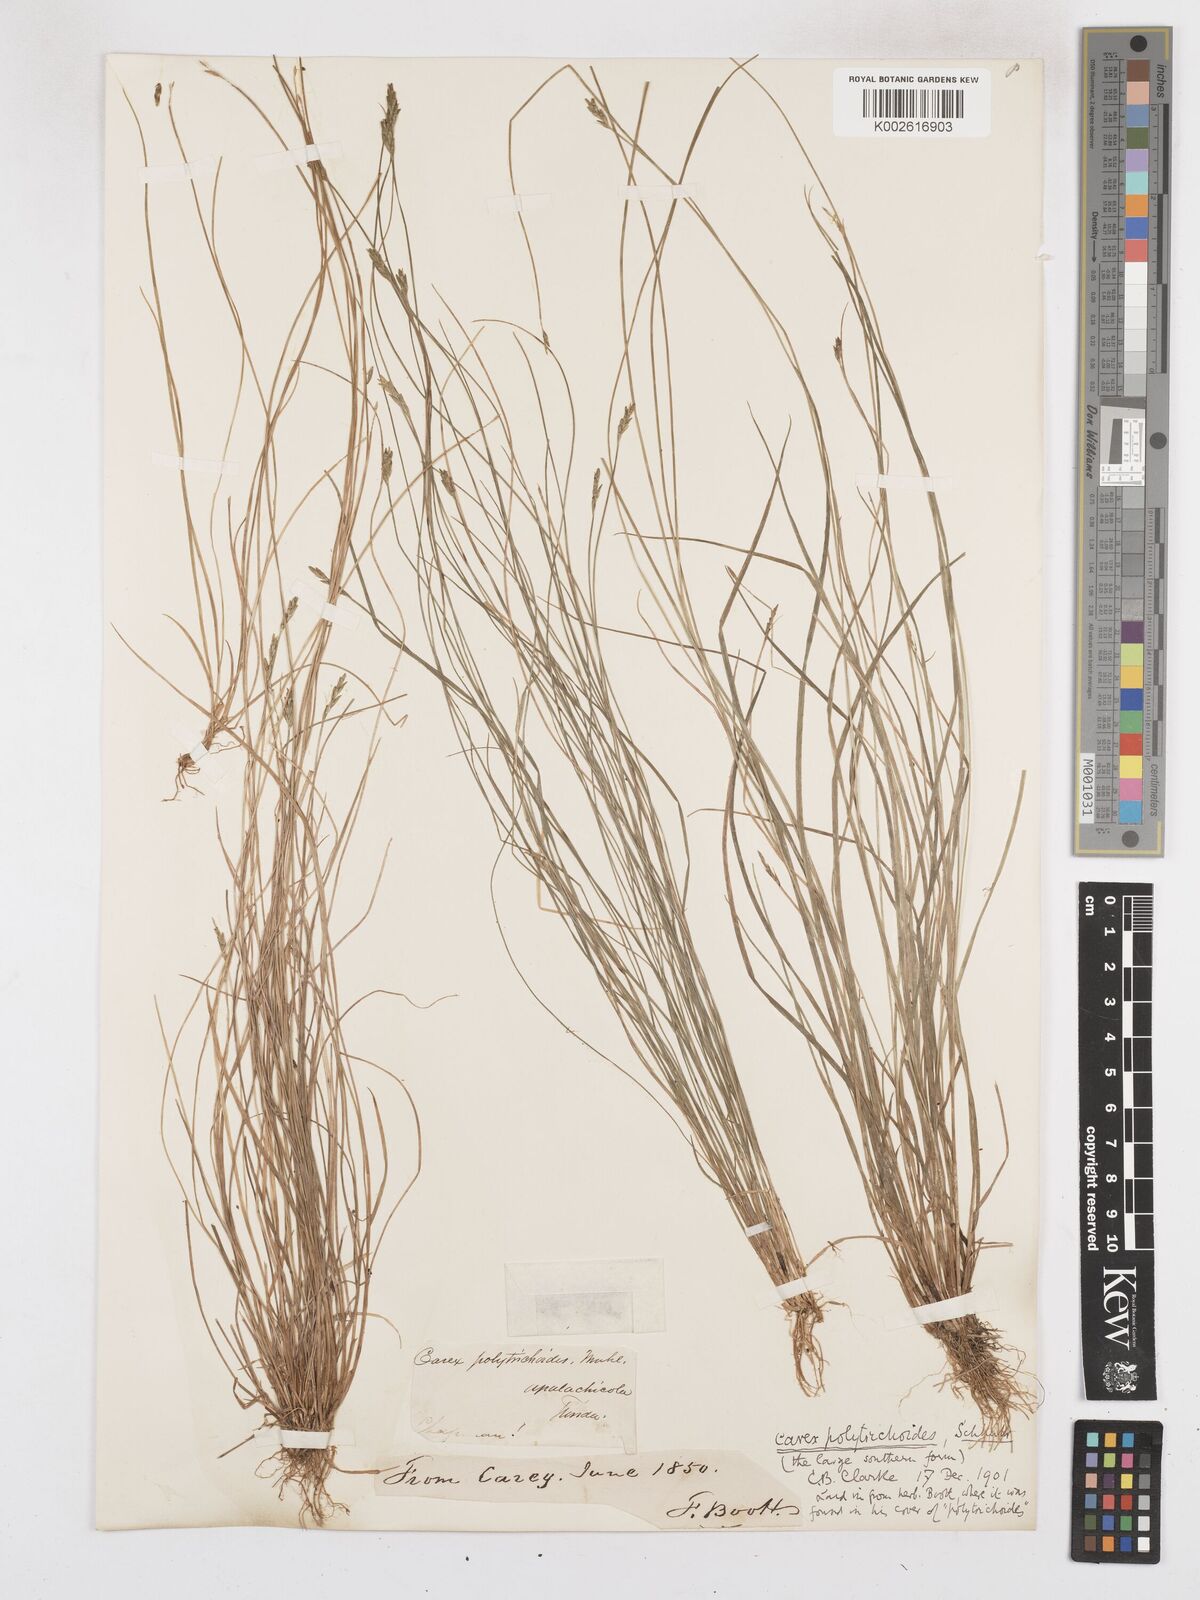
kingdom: Plantae
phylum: Tracheophyta
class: Liliopsida
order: Poales
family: Cyperaceae
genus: Carex
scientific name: Carex leptalea
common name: Bristly-stalked sedge
